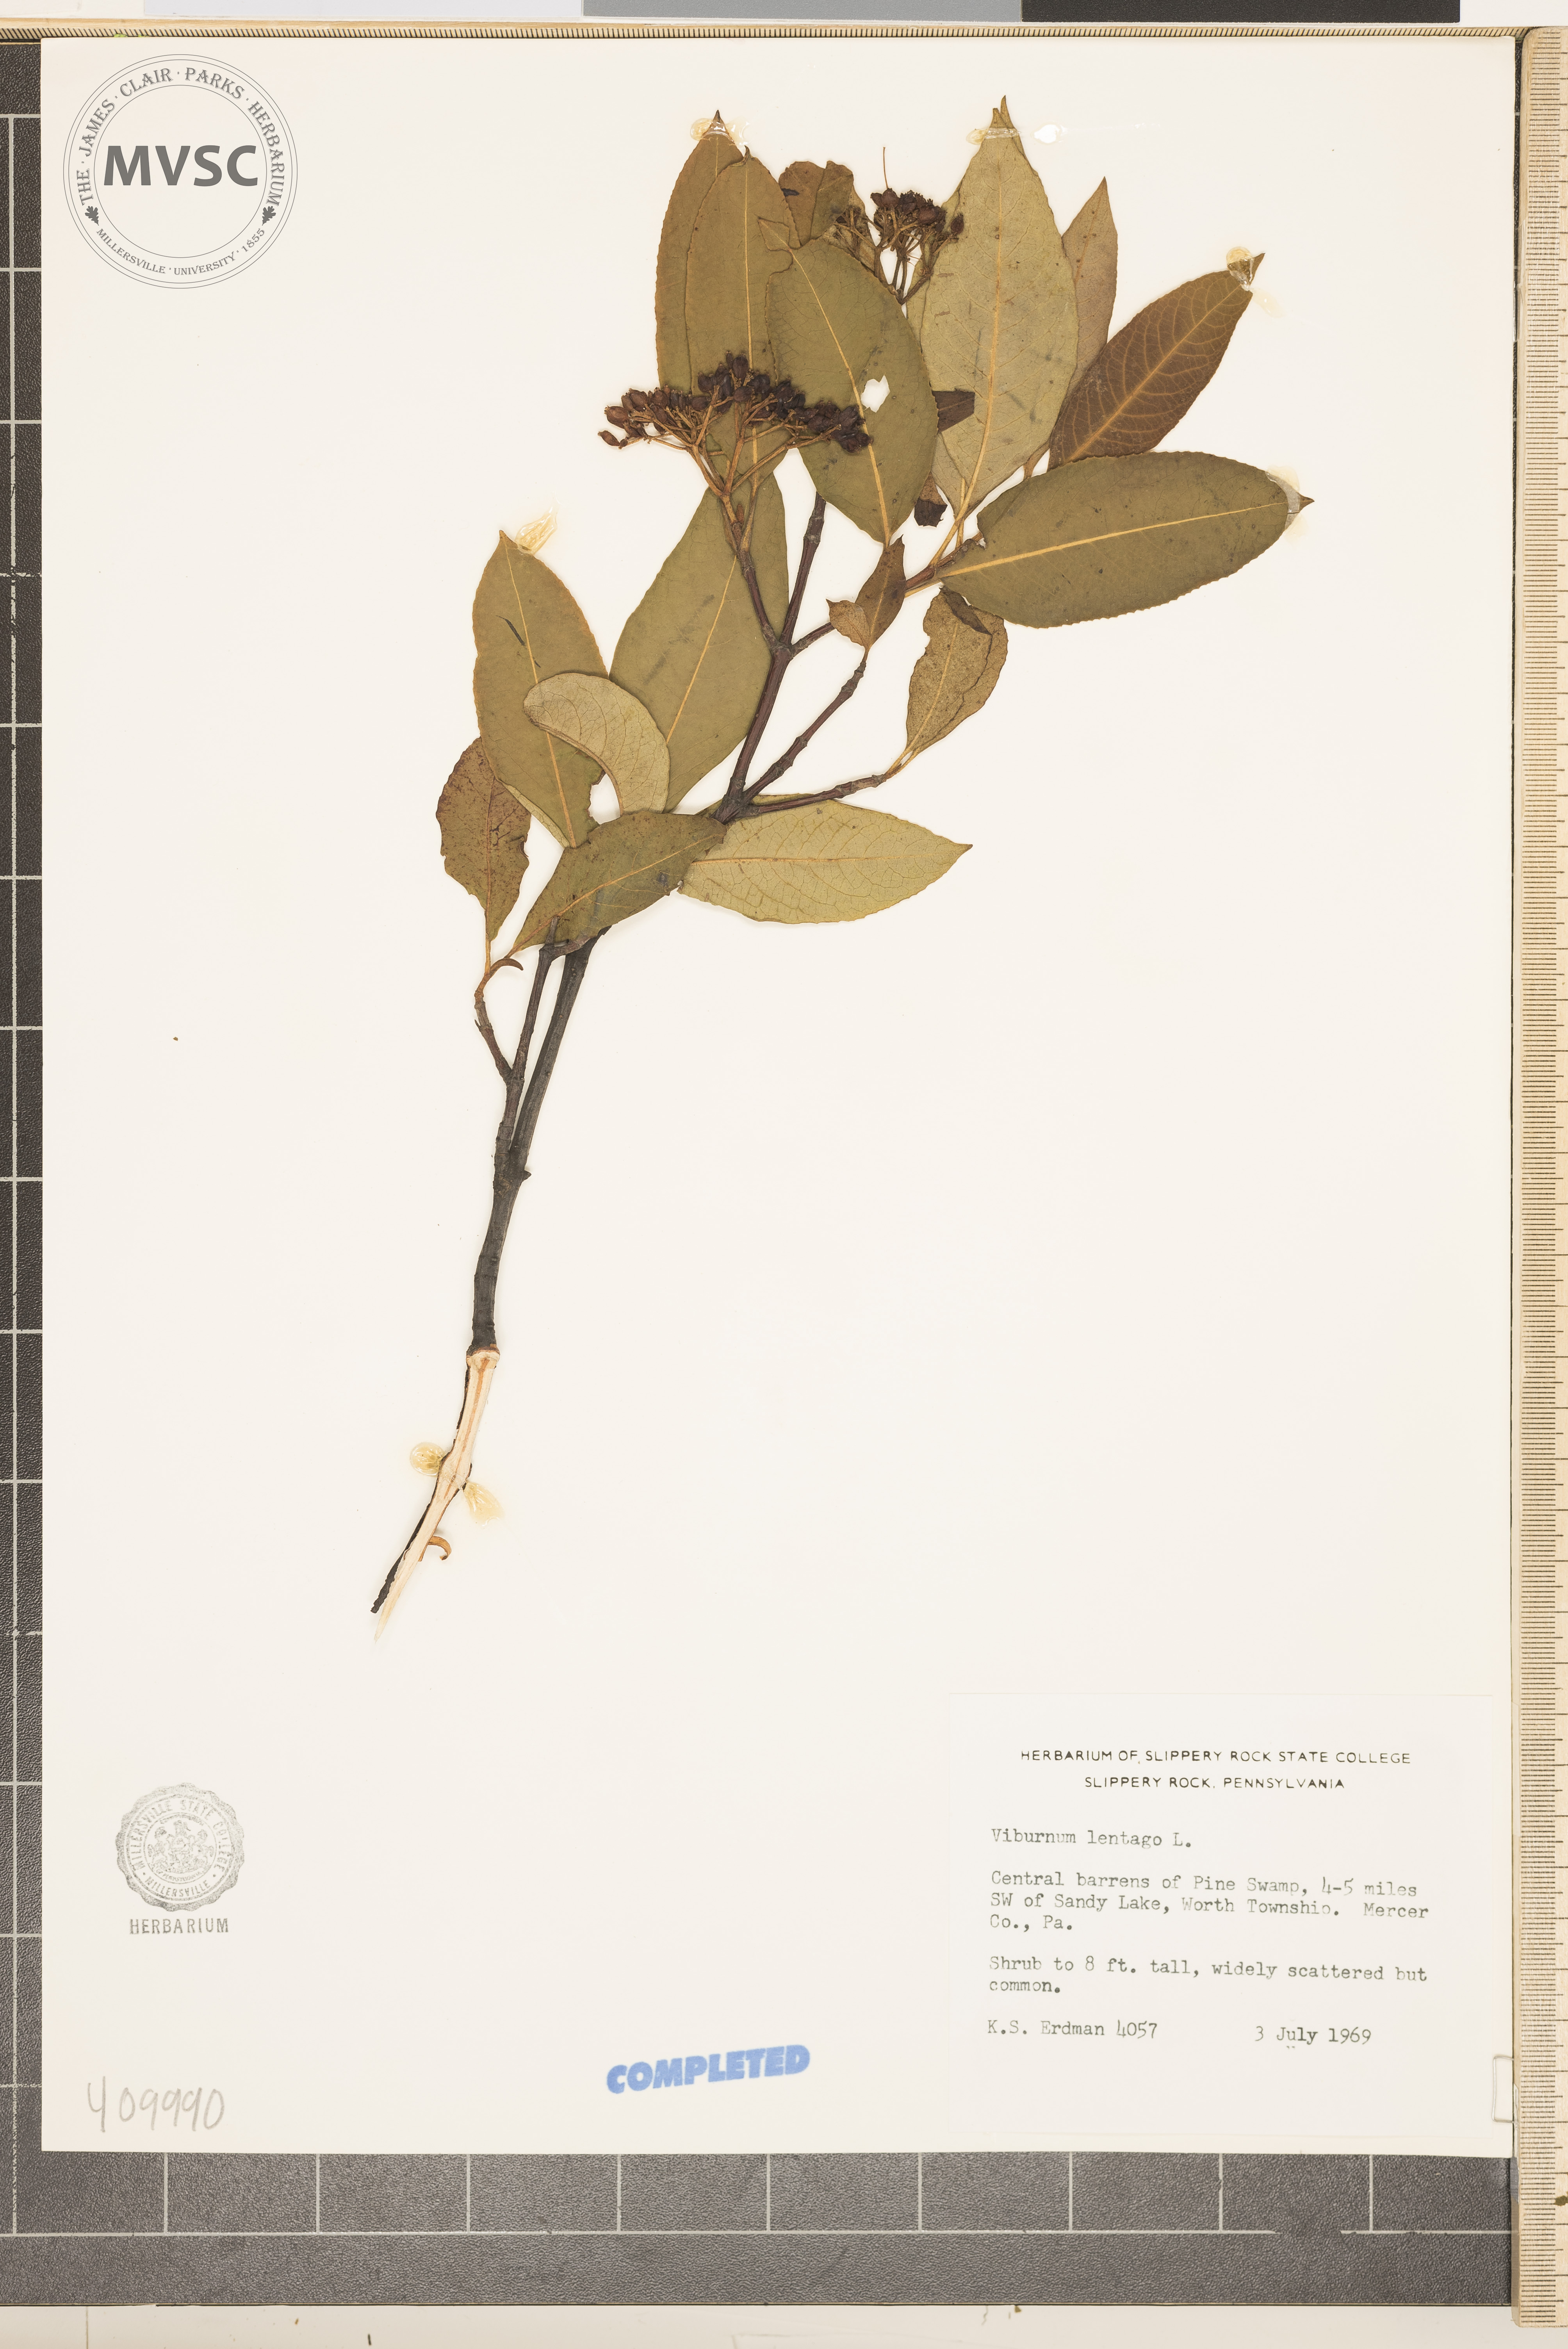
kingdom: Plantae
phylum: Tracheophyta
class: Magnoliopsida
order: Dipsacales
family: Viburnaceae
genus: Viburnum
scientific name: Viburnum lentago
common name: Black haw
